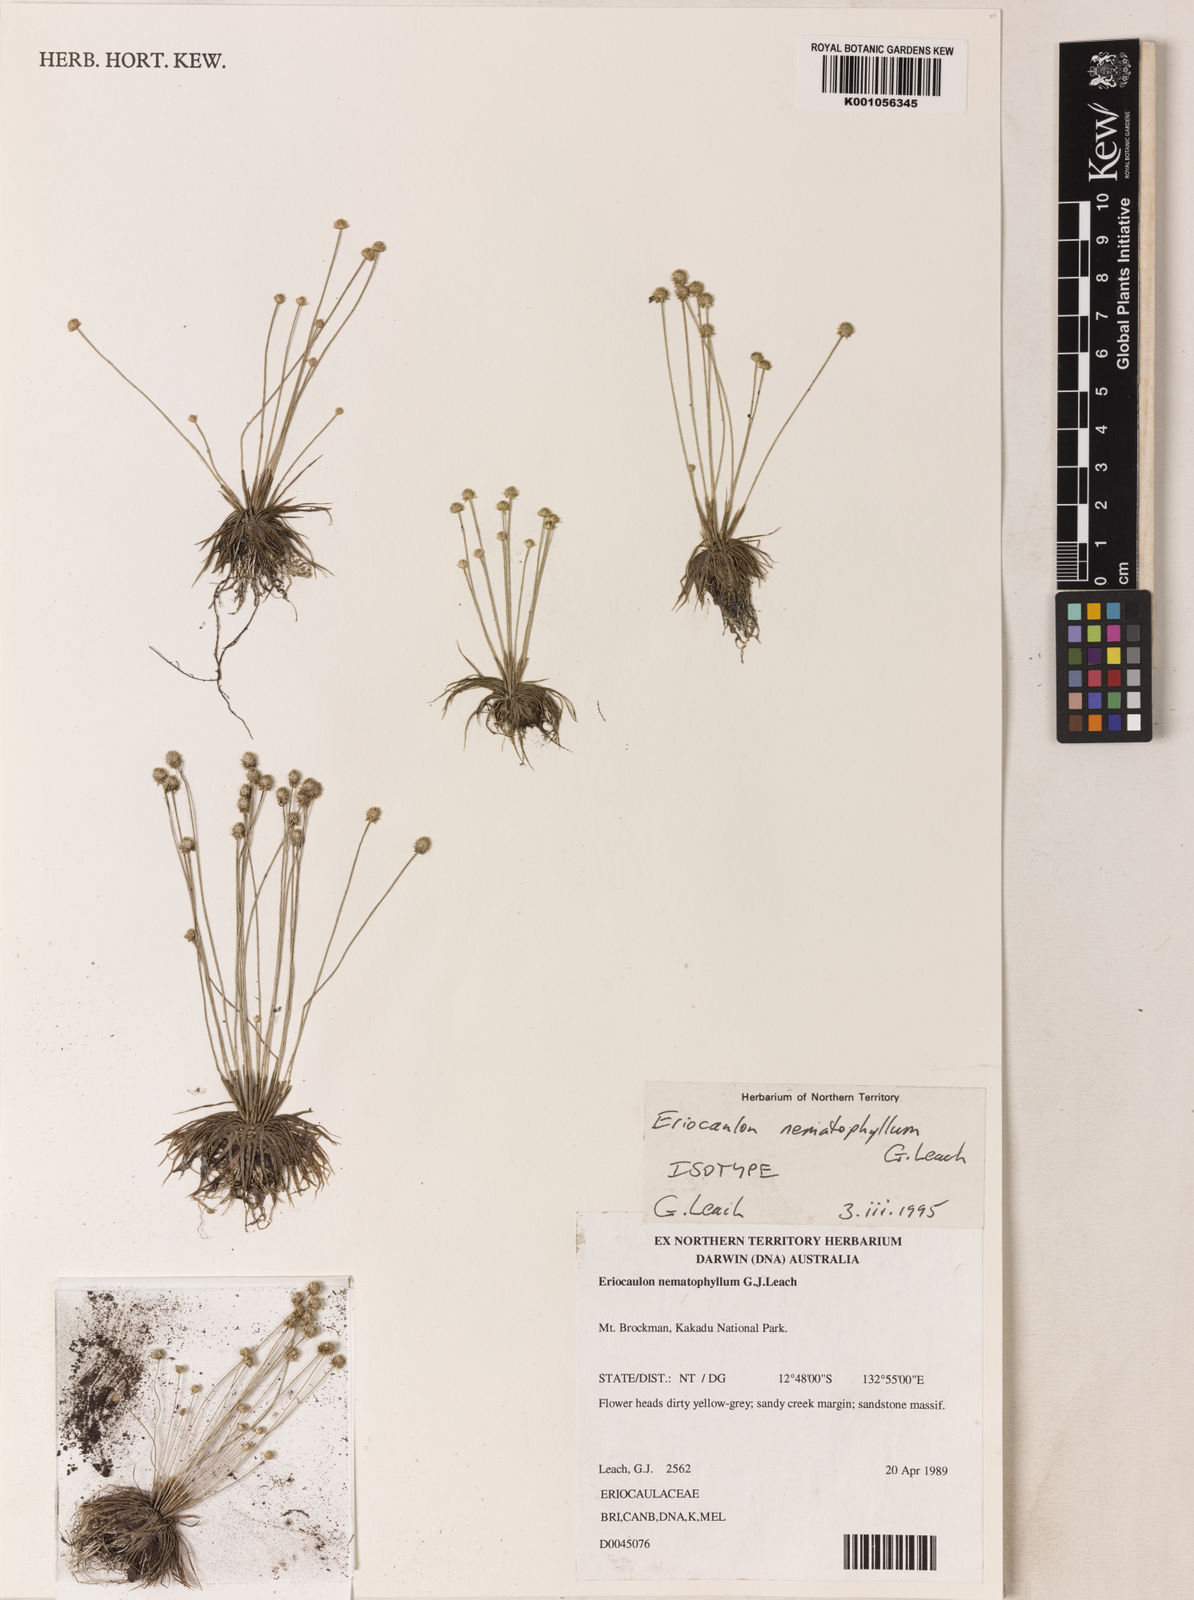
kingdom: Plantae
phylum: Tracheophyta
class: Liliopsida
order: Poales
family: Eriocaulaceae
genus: Eriocaulon
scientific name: Eriocaulon nematophyllum
